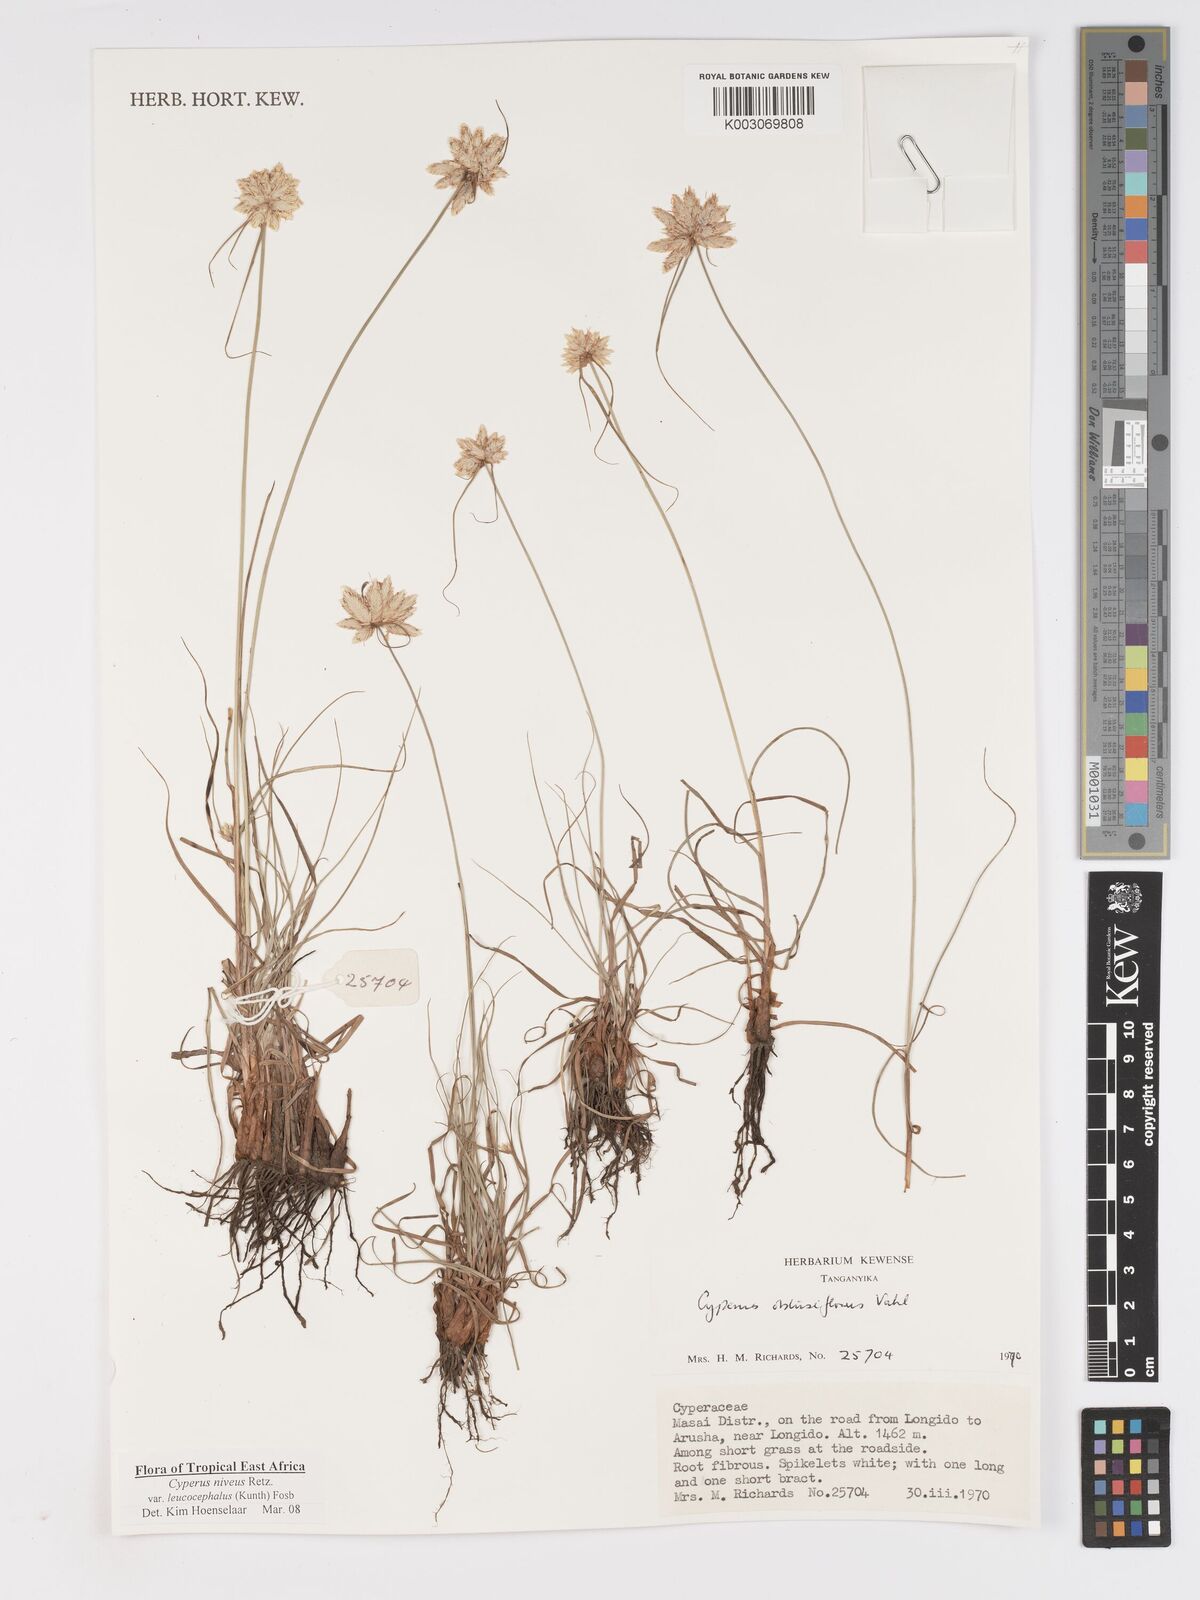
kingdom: Plantae
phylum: Tracheophyta
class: Liliopsida
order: Poales
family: Cyperaceae
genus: Cyperus
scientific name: Cyperus niveus
